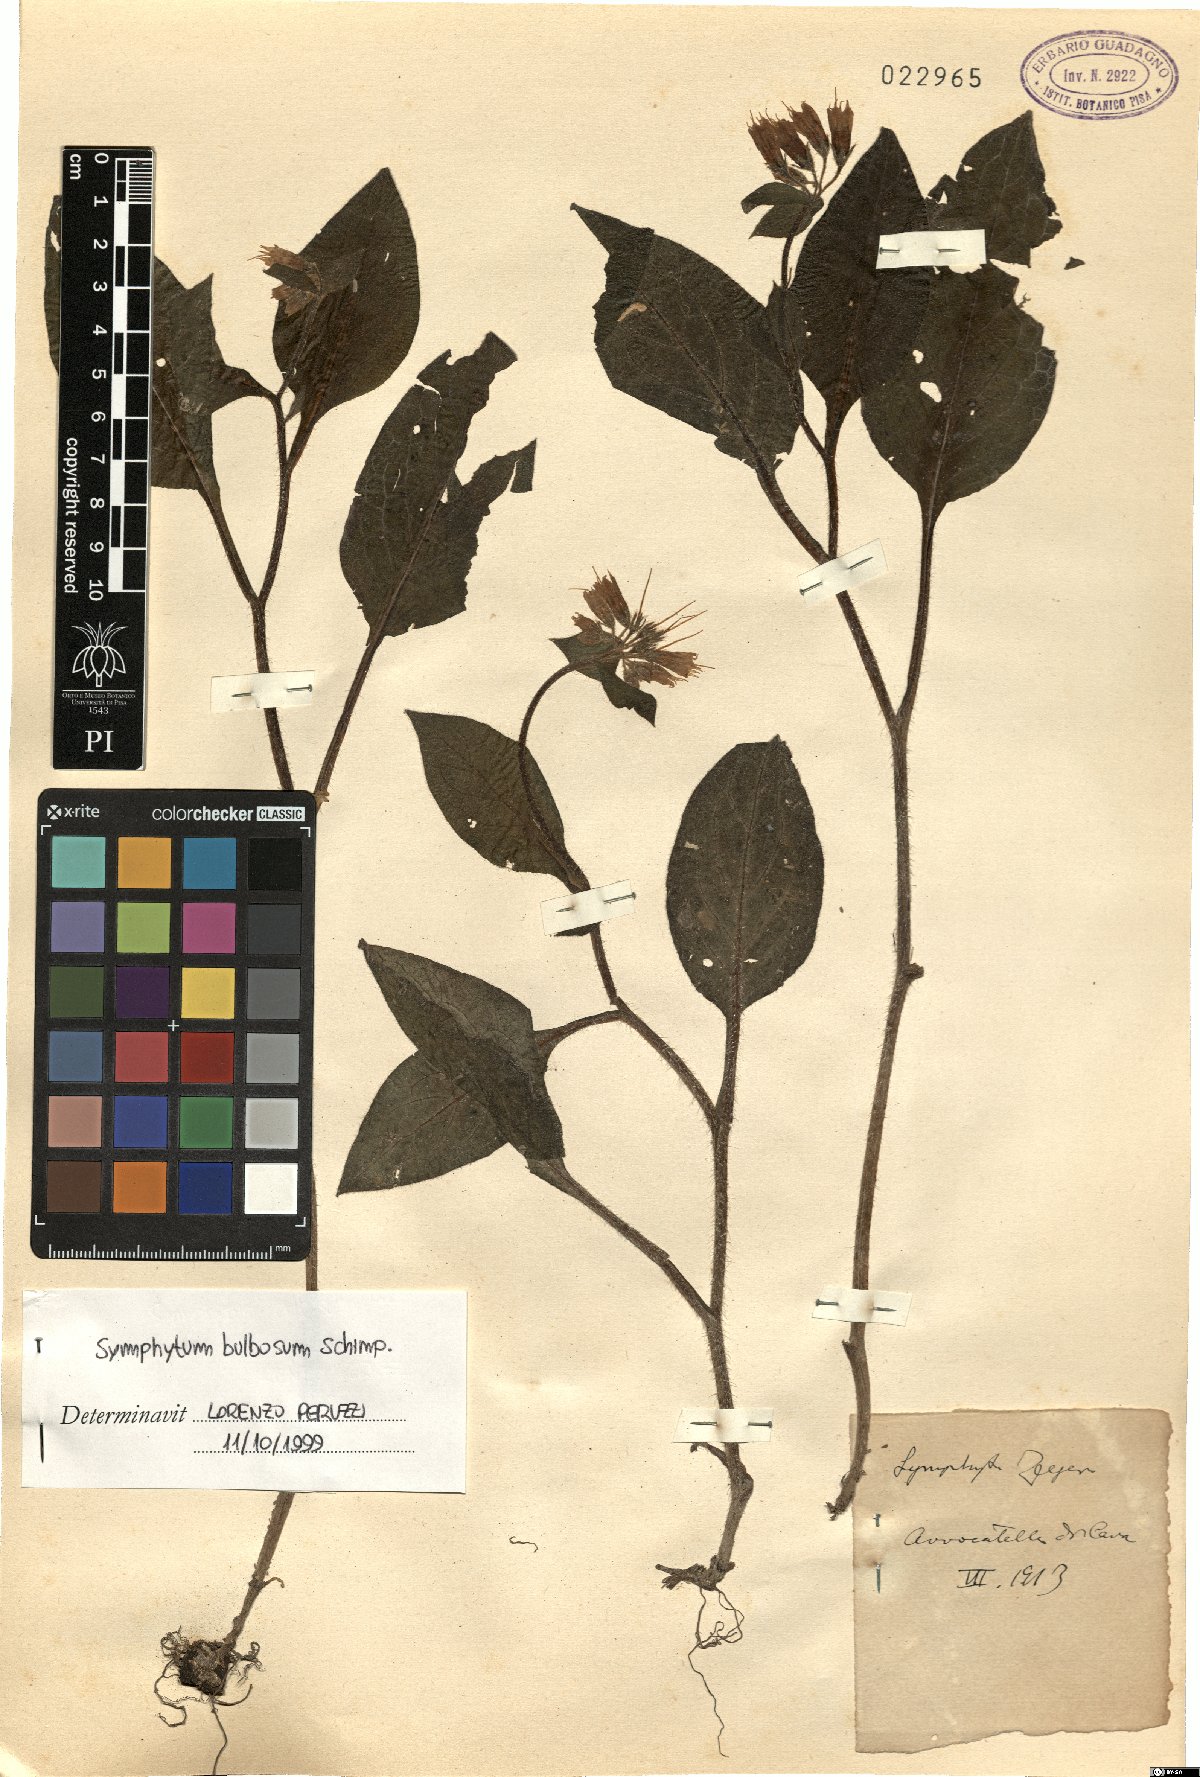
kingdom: Plantae
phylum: Tracheophyta
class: Magnoliopsida
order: Boraginales
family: Boraginaceae
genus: Symphytum
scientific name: Symphytum bulbosum
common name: Bulbous comfrey
